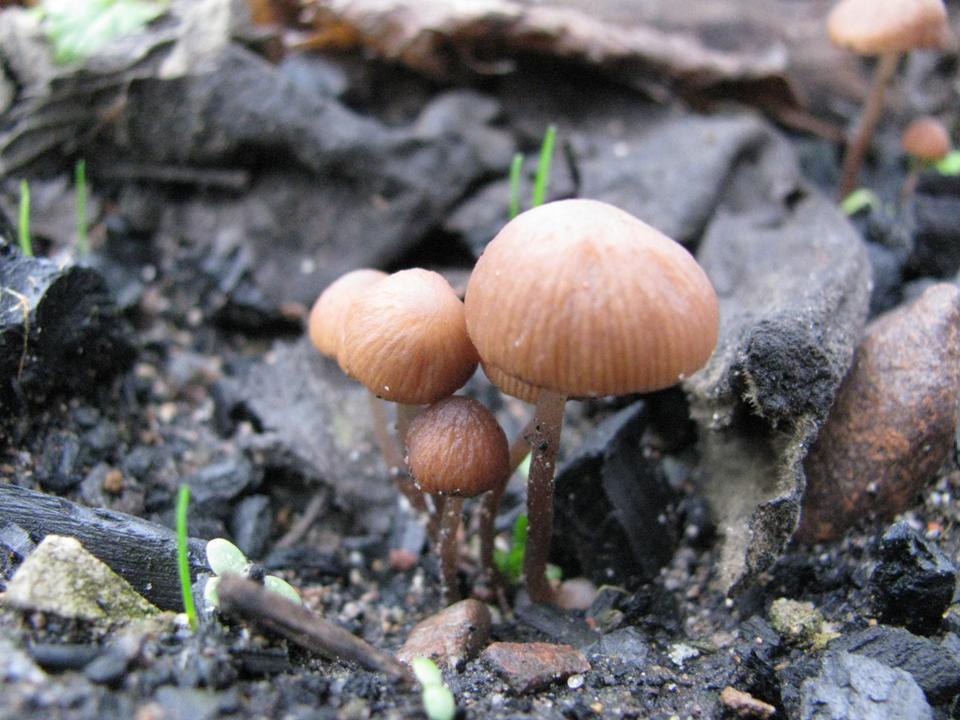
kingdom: Fungi
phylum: Basidiomycota
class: Agaricomycetes
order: Agaricales
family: Psathyrellaceae
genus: Psathyrella
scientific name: Psathyrella prona
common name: vej-mørkhat
